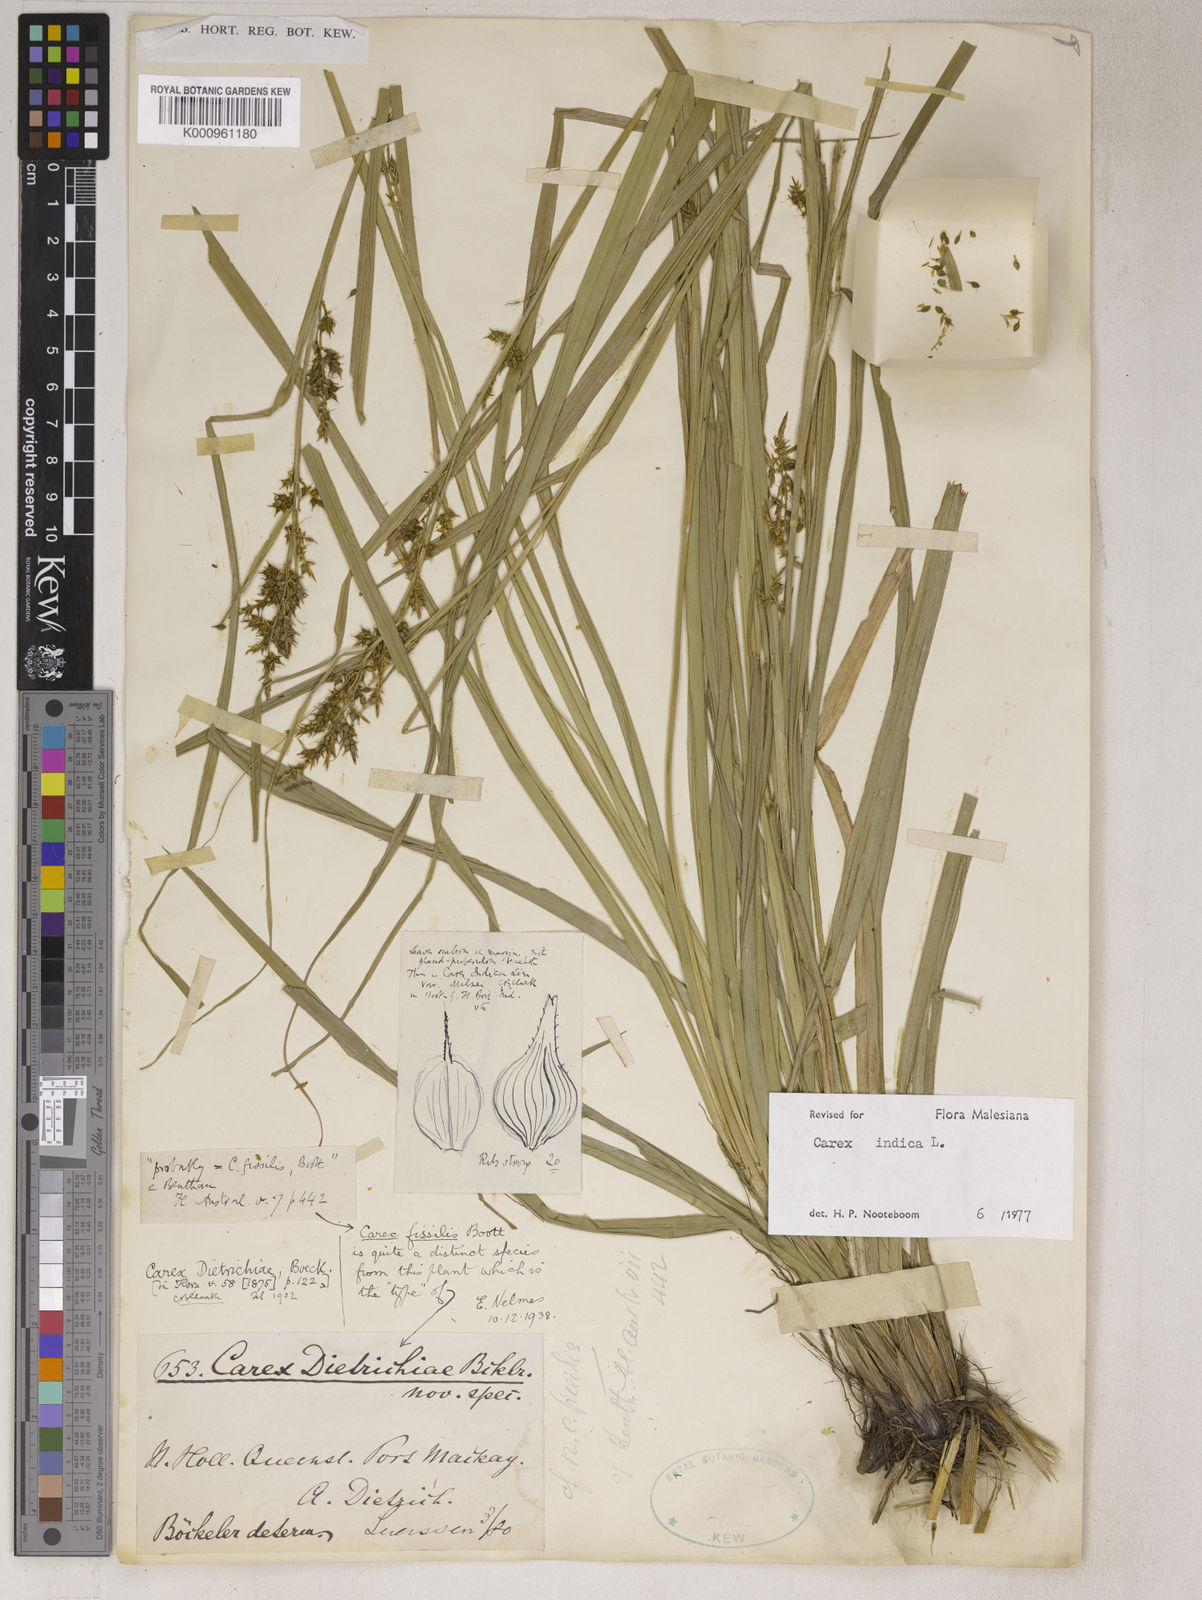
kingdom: Plantae
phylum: Tracheophyta
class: Liliopsida
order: Poales
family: Cyperaceae
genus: Carex
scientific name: Carex indica
